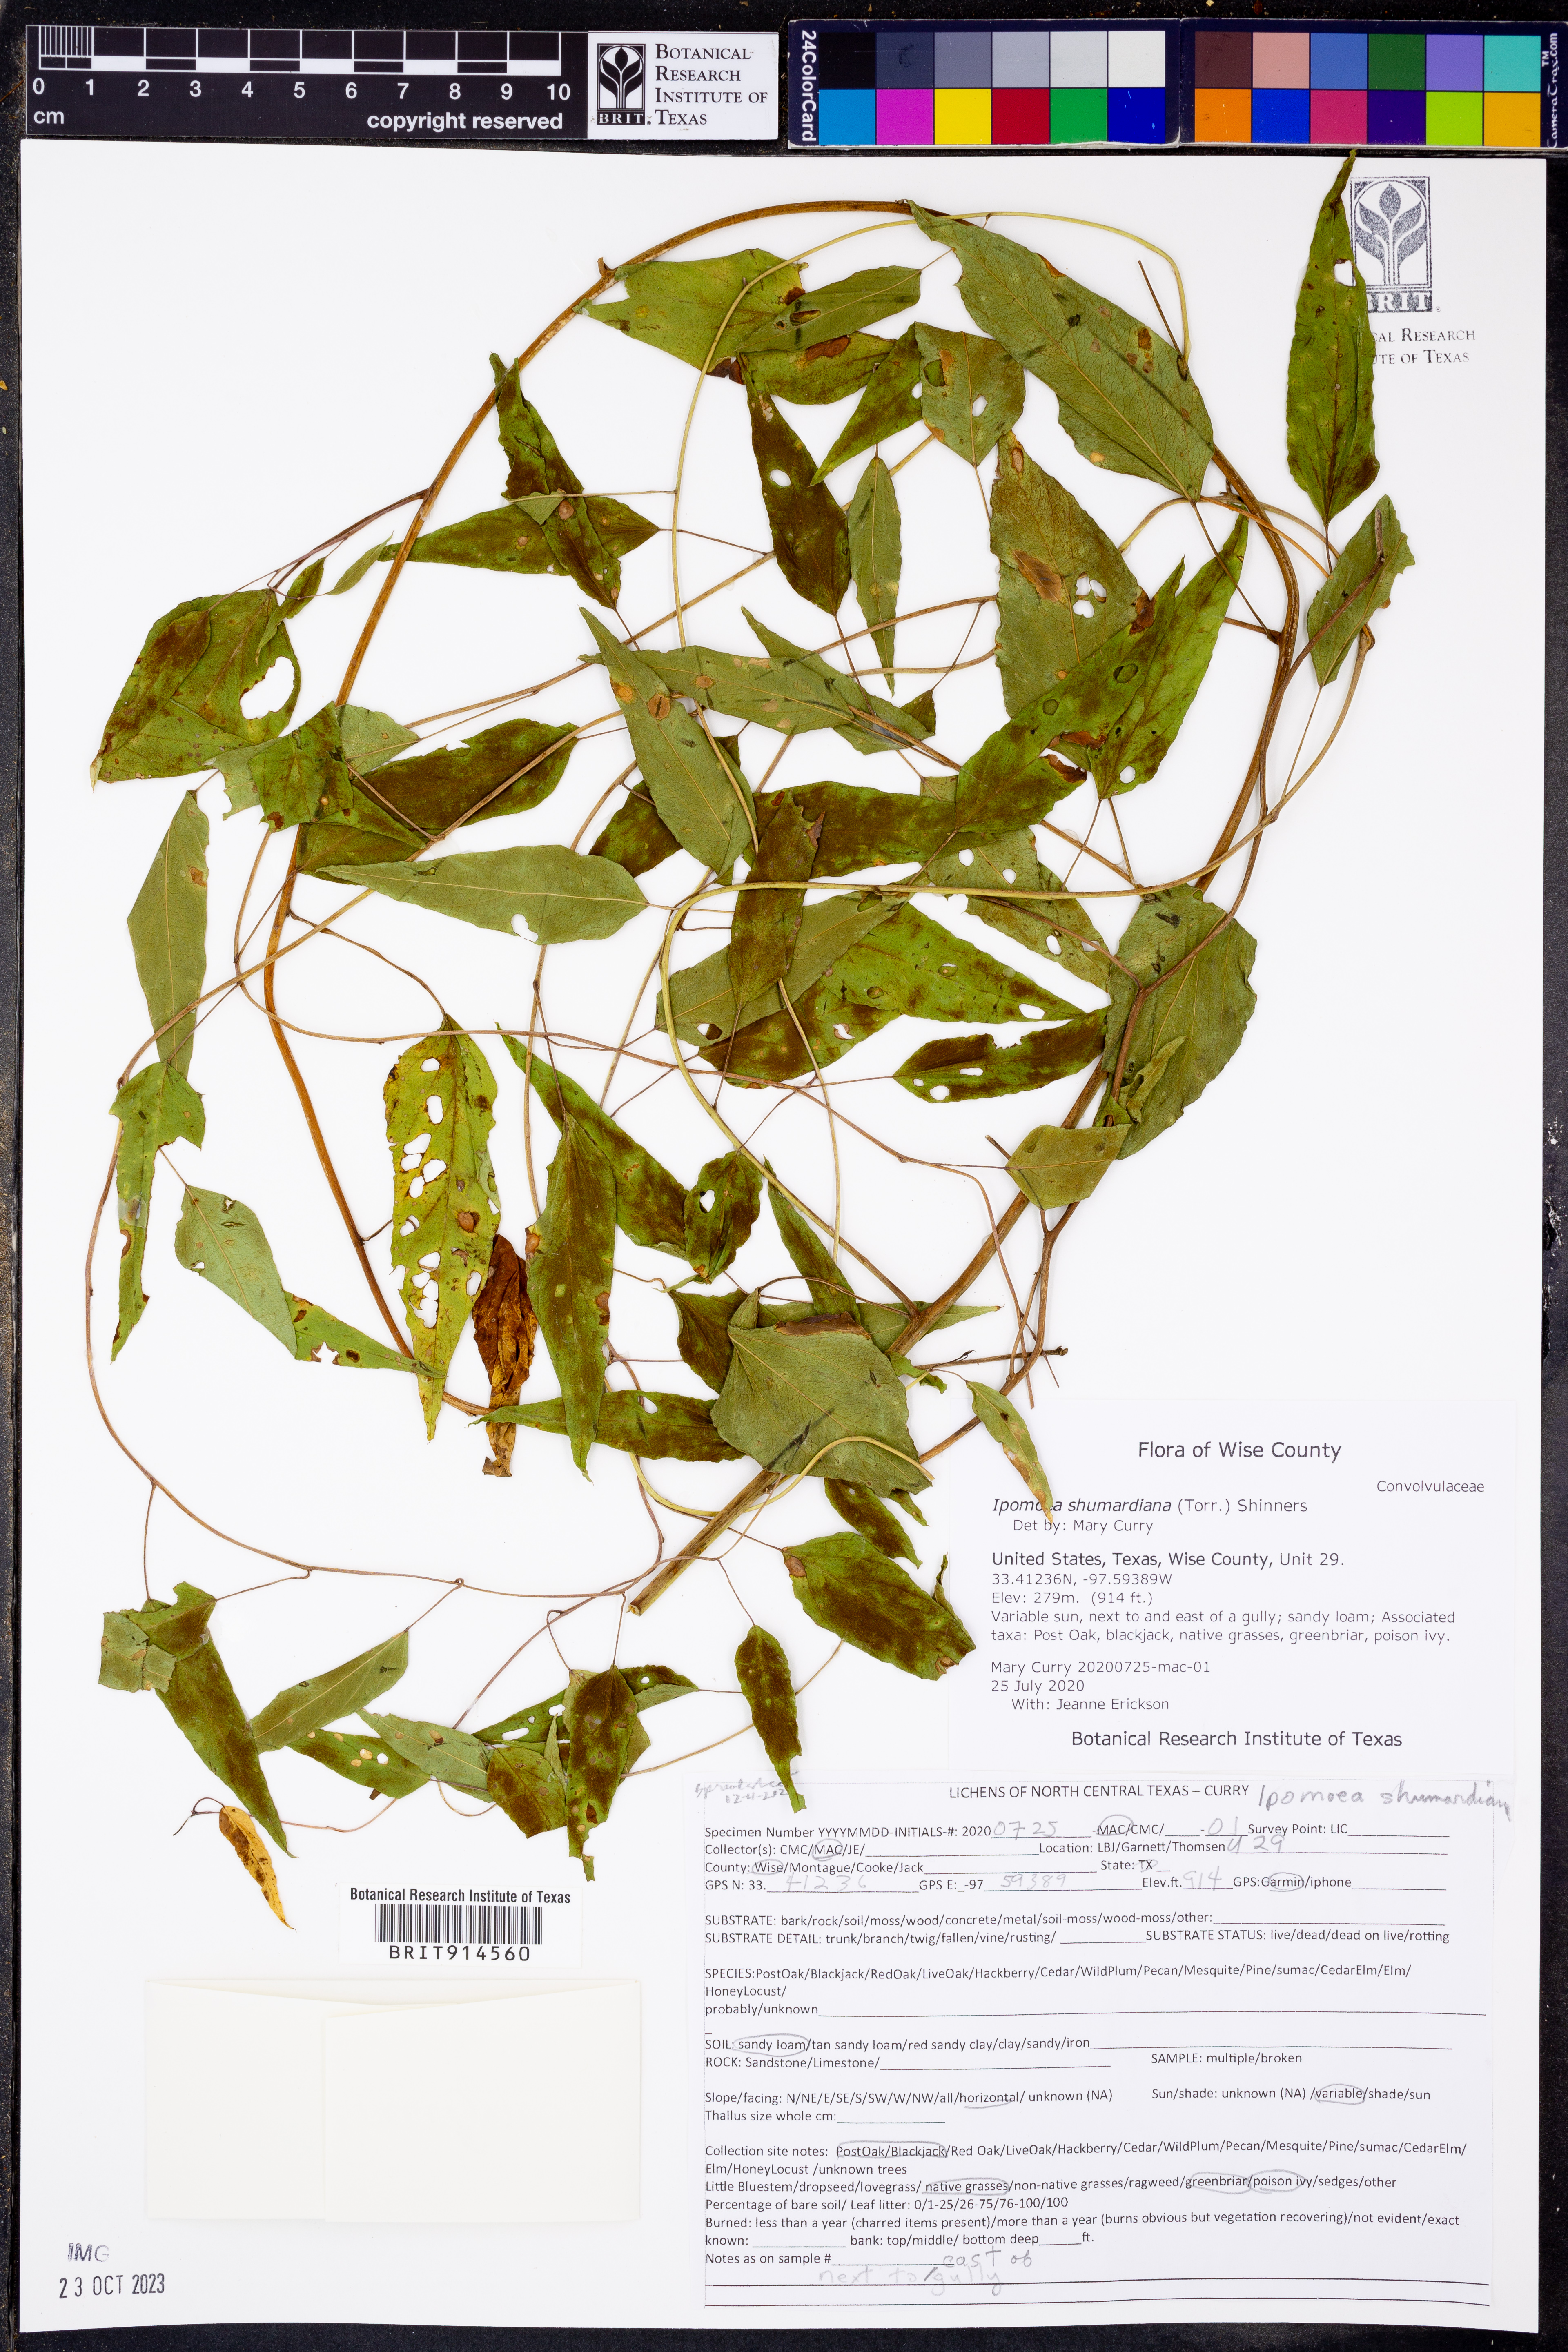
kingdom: Plantae
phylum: Tracheophyta
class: Magnoliopsida
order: Solanales
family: Convolvulaceae
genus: Ipomoea
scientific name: Ipomoea shumardiana
